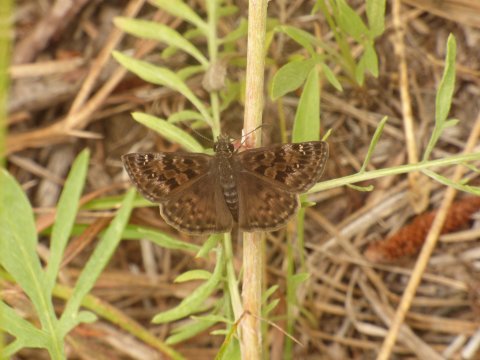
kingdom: Animalia
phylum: Arthropoda
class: Insecta
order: Lepidoptera
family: Hesperiidae
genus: Erynnis
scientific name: Erynnis martialis
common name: Mottled Duskywing
